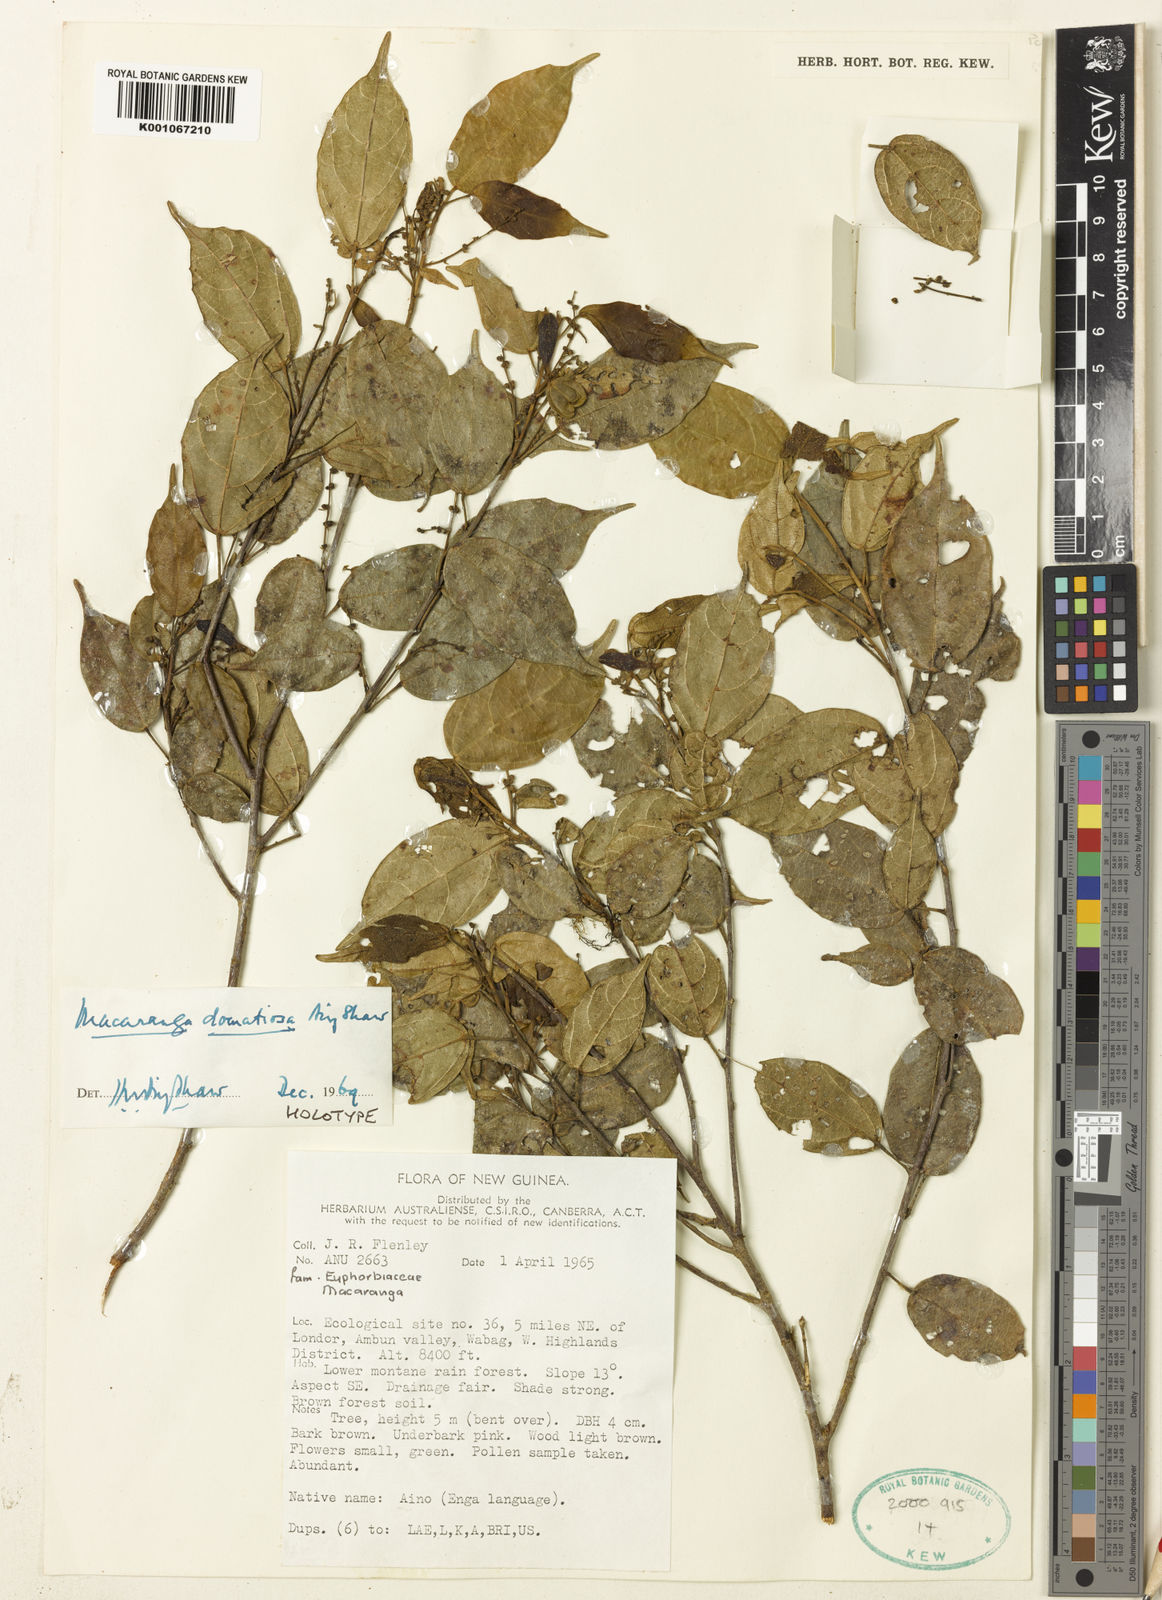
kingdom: Plantae
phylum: Tracheophyta
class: Magnoliopsida
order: Malpighiales
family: Euphorbiaceae
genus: Macaranga
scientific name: Macaranga domatiosa
